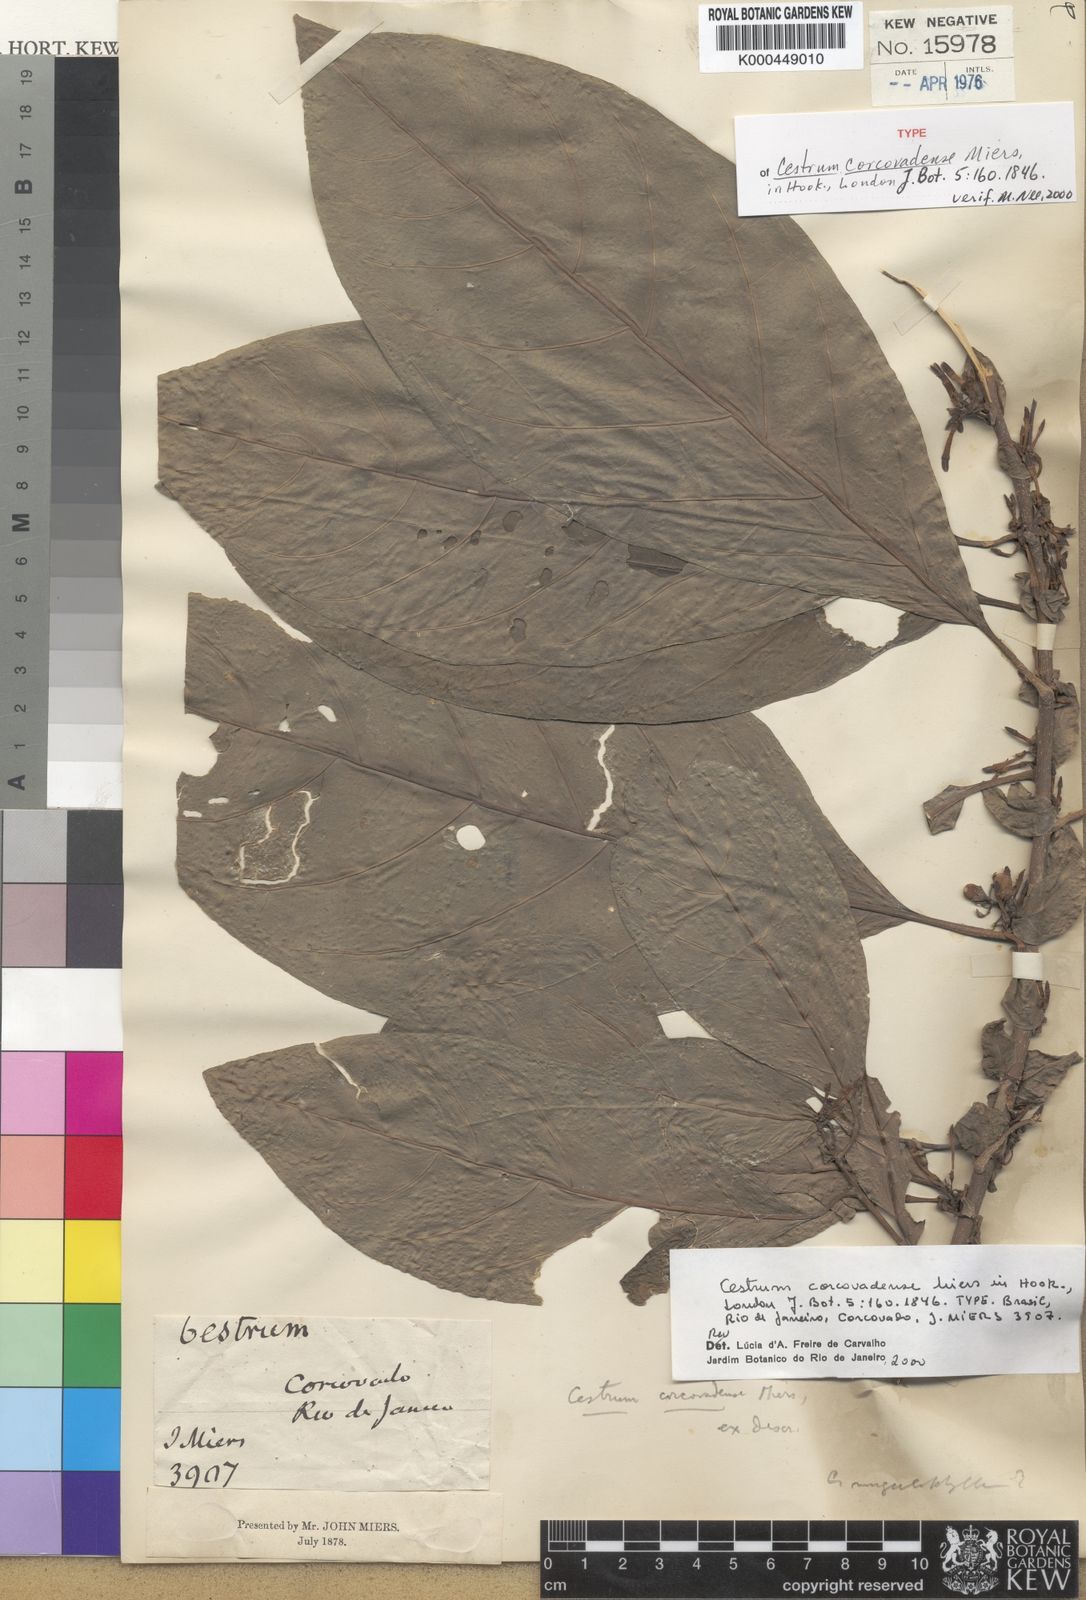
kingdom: Plantae
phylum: Tracheophyta
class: Magnoliopsida
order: Solanales
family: Solanaceae
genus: Cestrum
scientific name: Cestrum corcovadense
